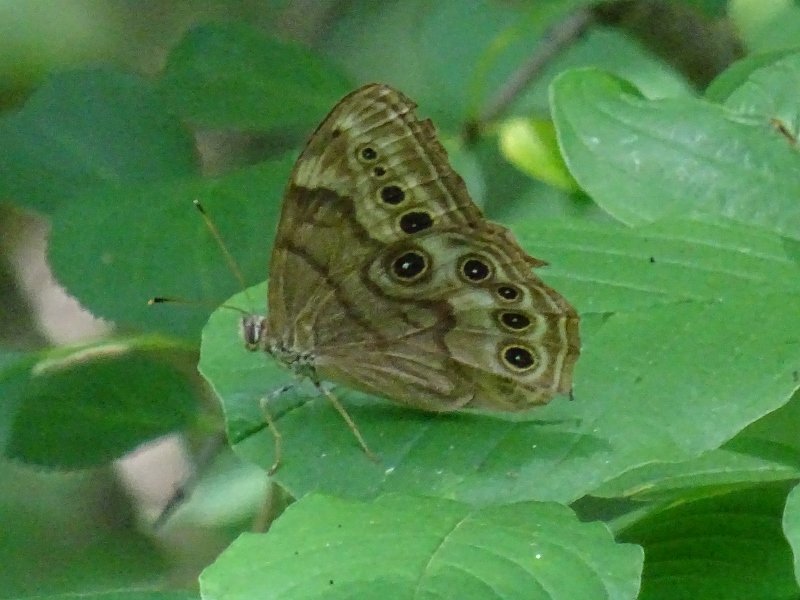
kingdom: Animalia
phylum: Arthropoda
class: Insecta
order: Lepidoptera
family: Nymphalidae
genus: Lethe
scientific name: Lethe anthedon
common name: Northern Pearly-Eye
